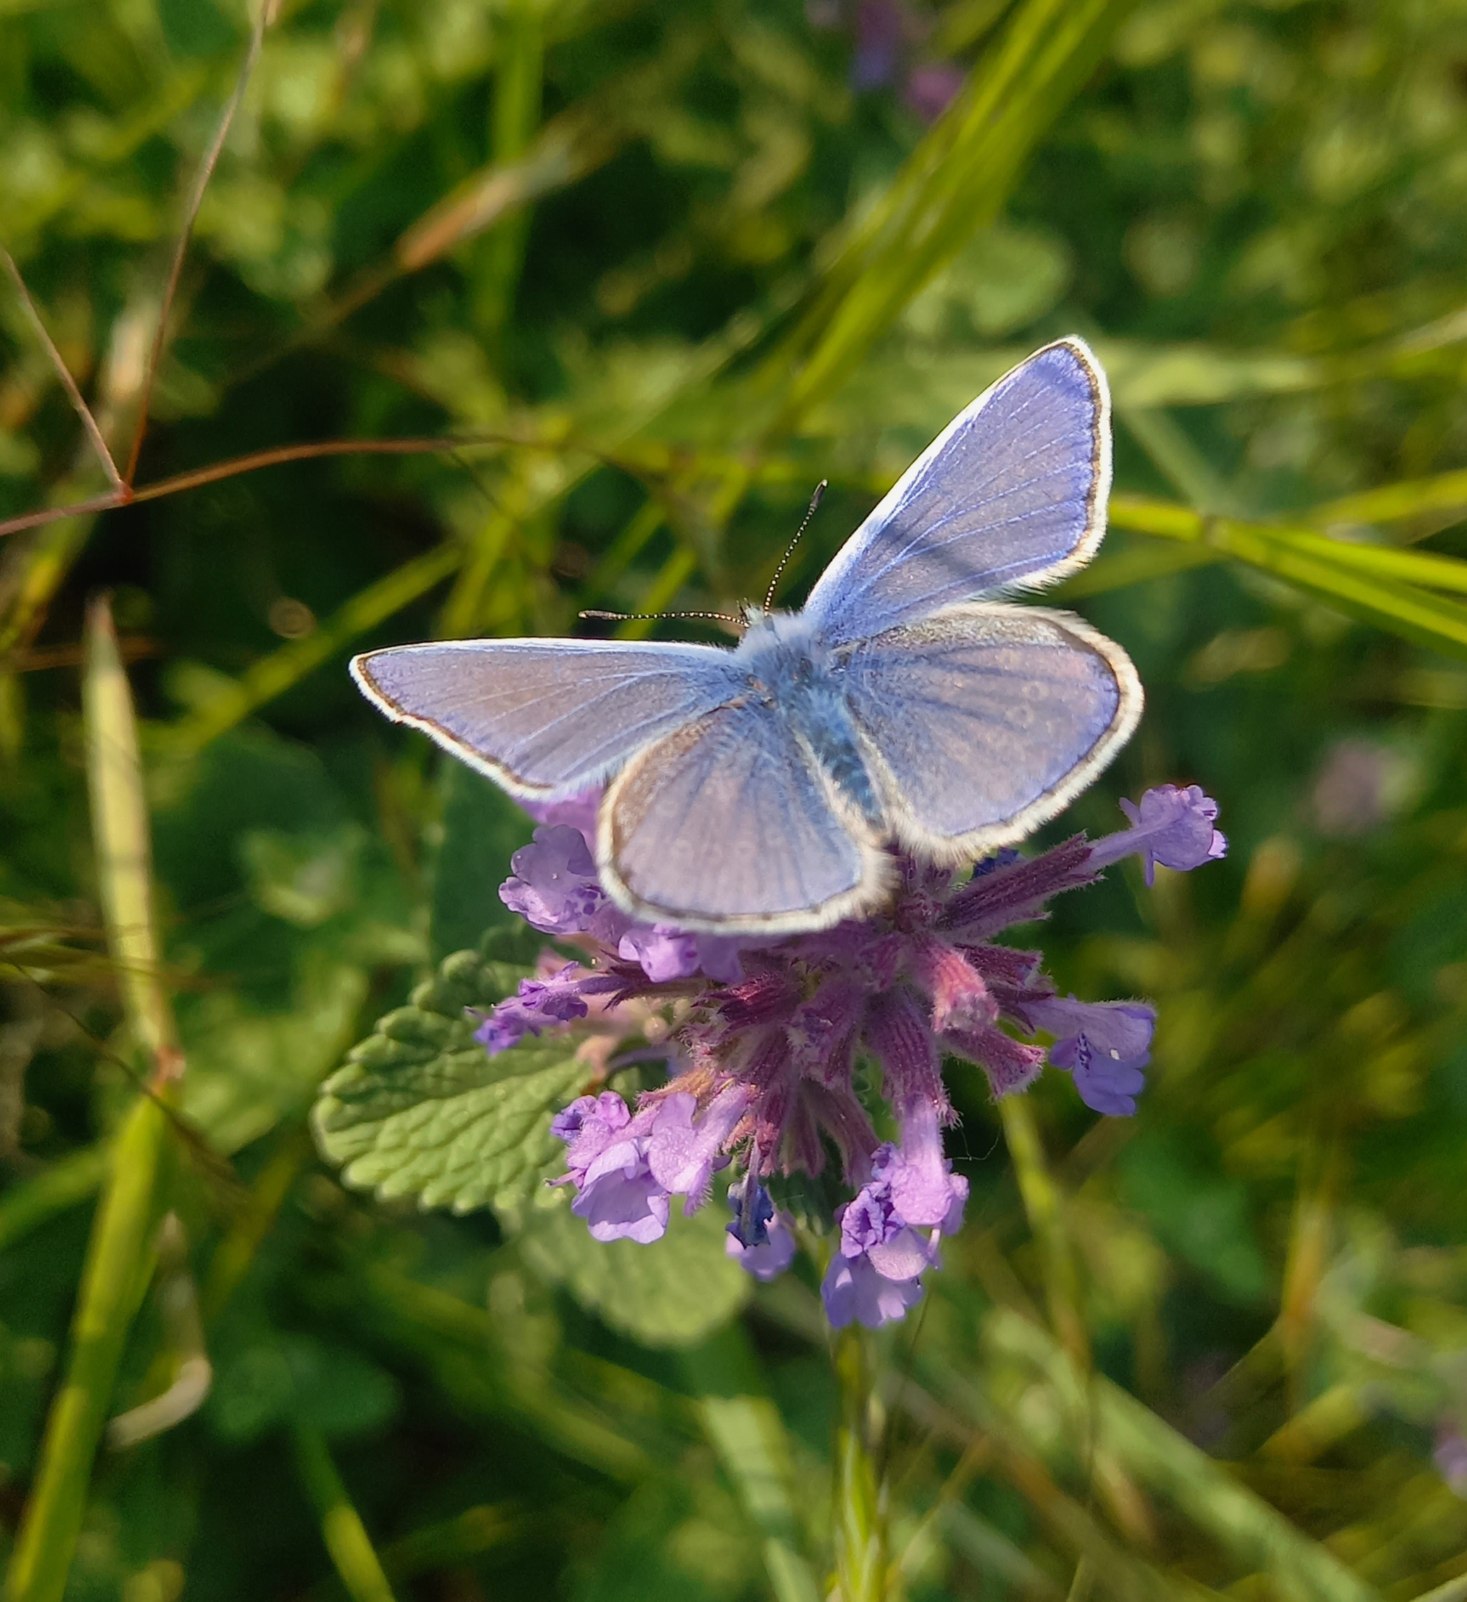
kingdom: Animalia
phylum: Arthropoda
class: Insecta
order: Lepidoptera
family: Lycaenidae
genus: Polyommatus
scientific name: Polyommatus icarus
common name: Almindelig blåfugl
